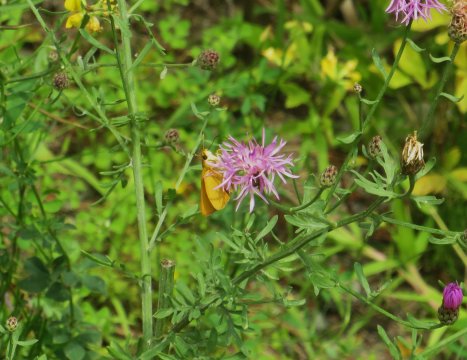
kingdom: Animalia
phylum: Arthropoda
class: Insecta
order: Lepidoptera
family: Hesperiidae
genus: Atrytone
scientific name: Atrytone delaware
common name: Delaware Skipper
